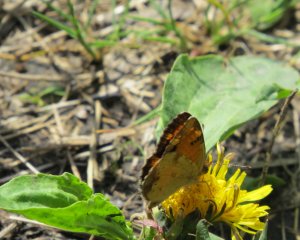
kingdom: Animalia
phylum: Arthropoda
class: Insecta
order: Lepidoptera
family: Nymphalidae
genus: Phyciodes
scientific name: Phyciodes tharos
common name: Northern Crescent
